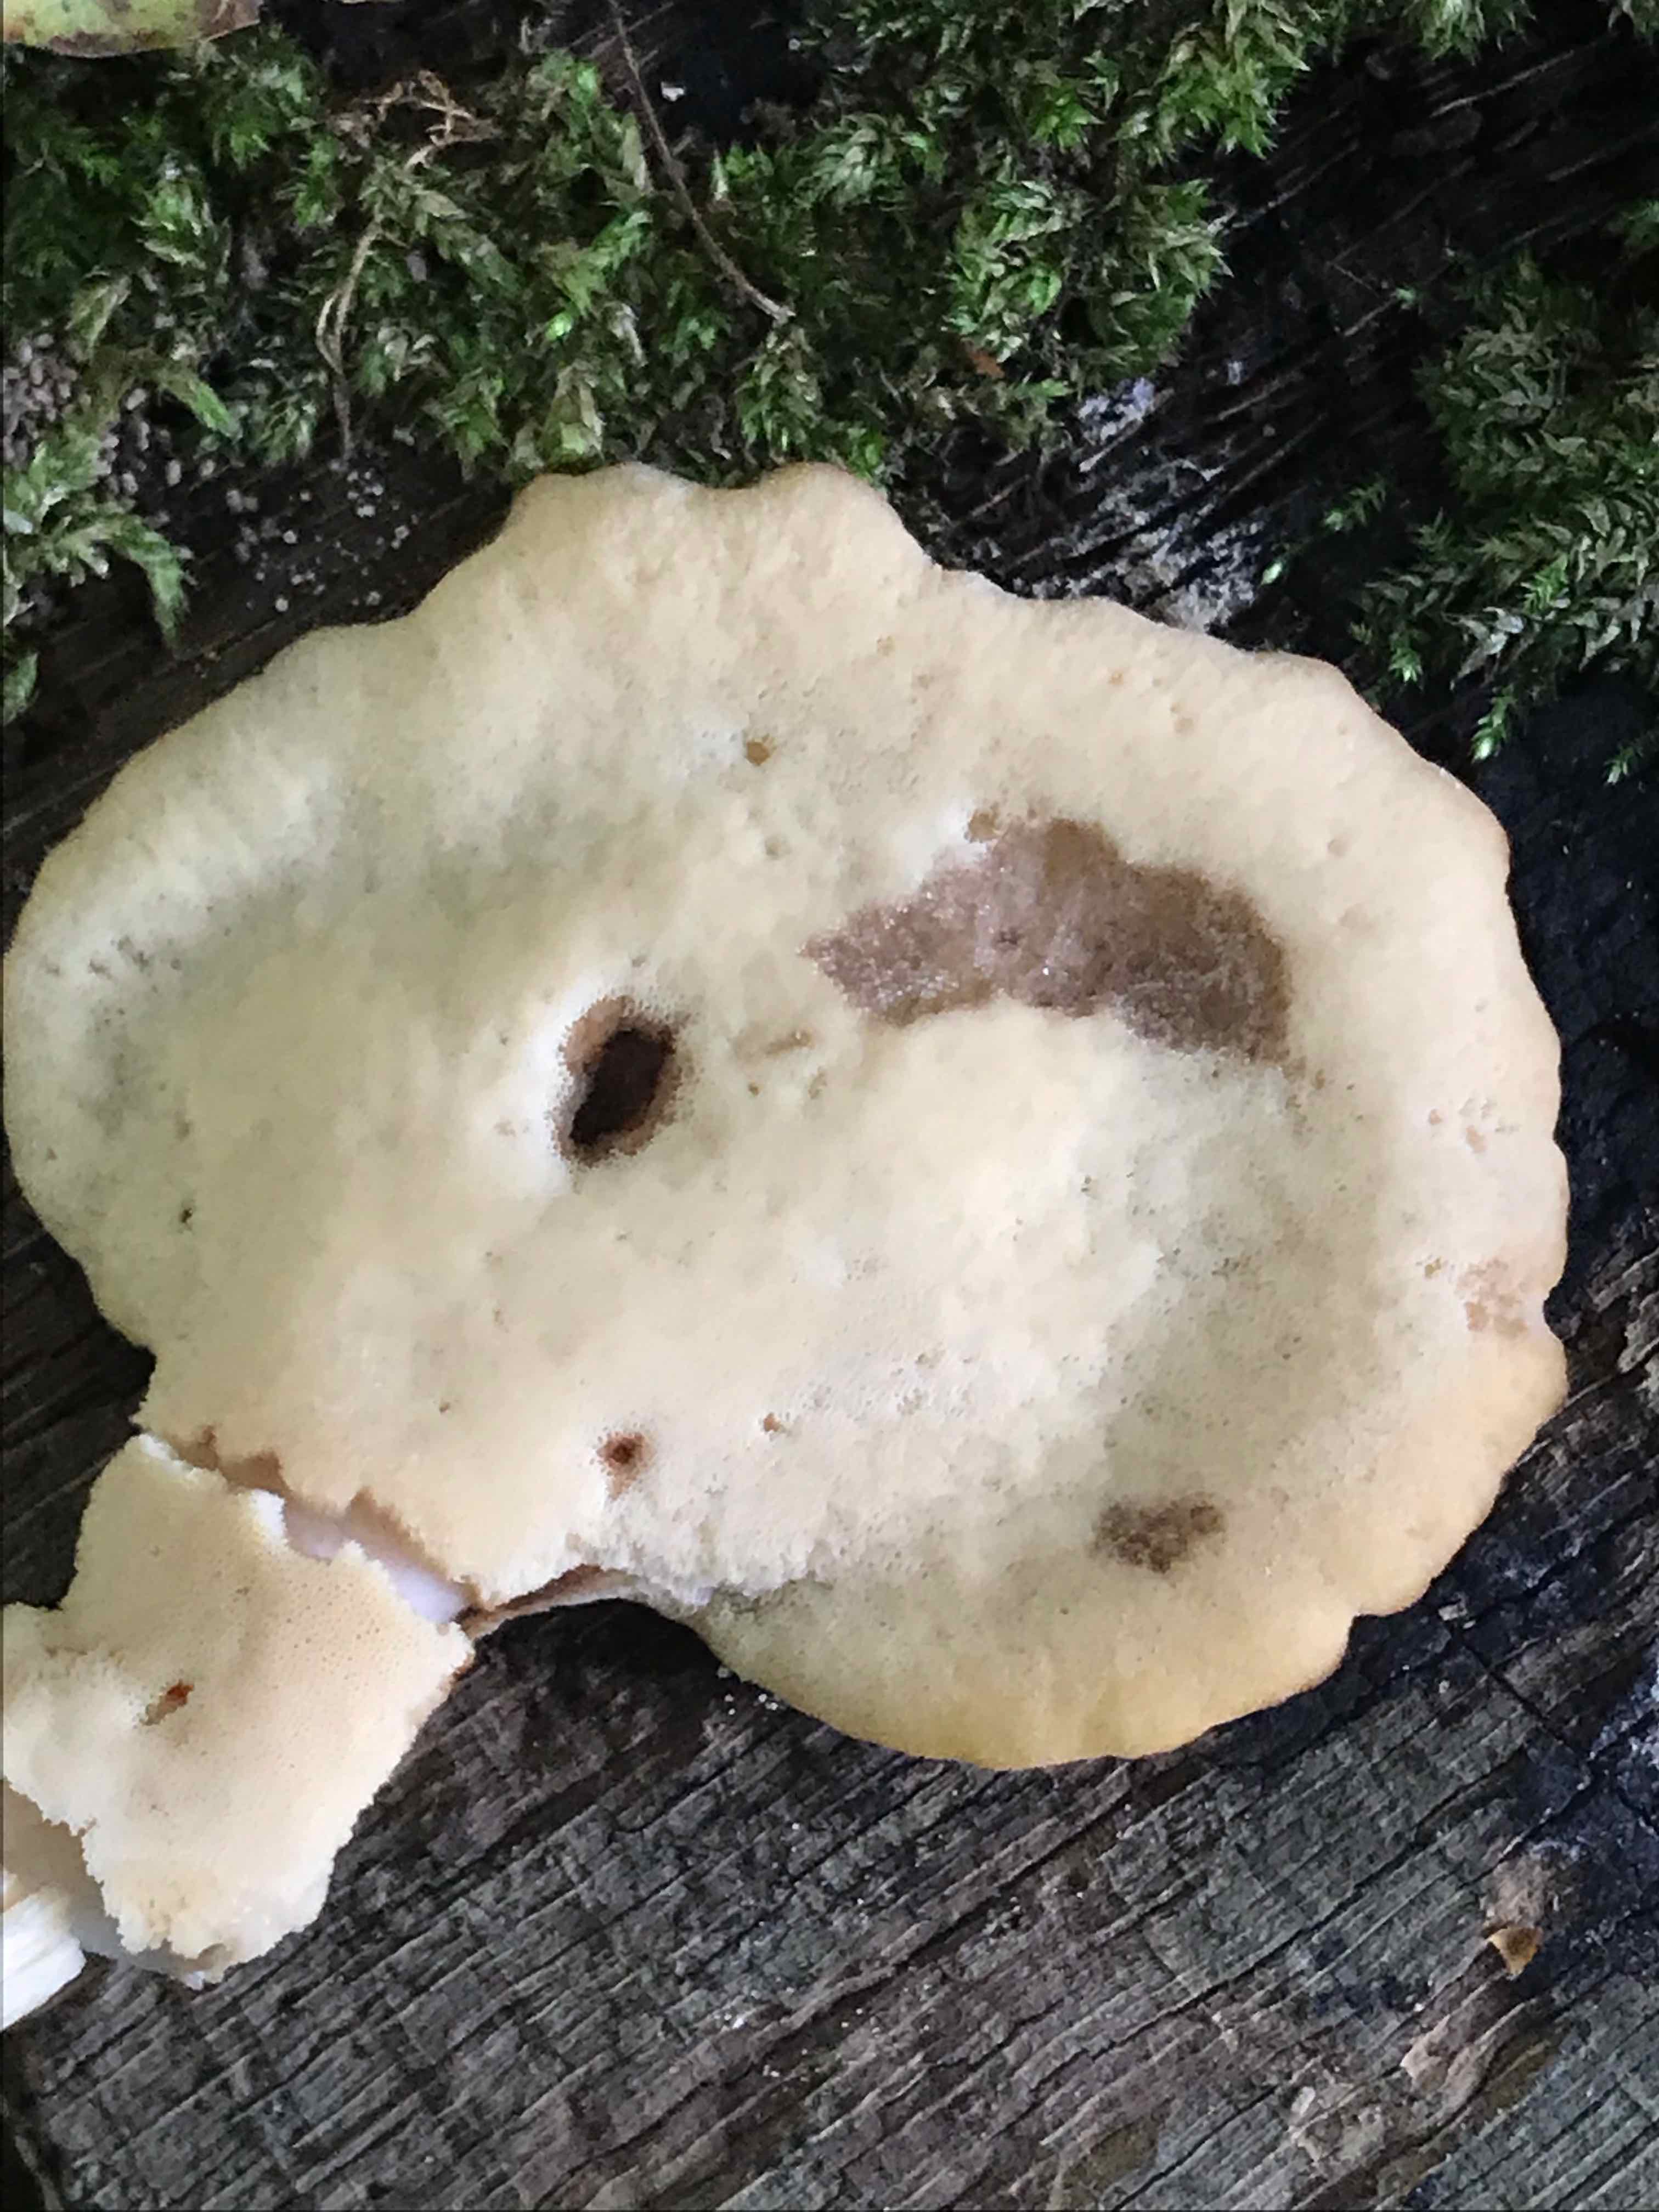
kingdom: Fungi
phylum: Basidiomycota
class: Agaricomycetes
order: Polyporales
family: Meripilaceae
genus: Meripilus
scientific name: Meripilus giganteus
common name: kæmpeporesvamp
